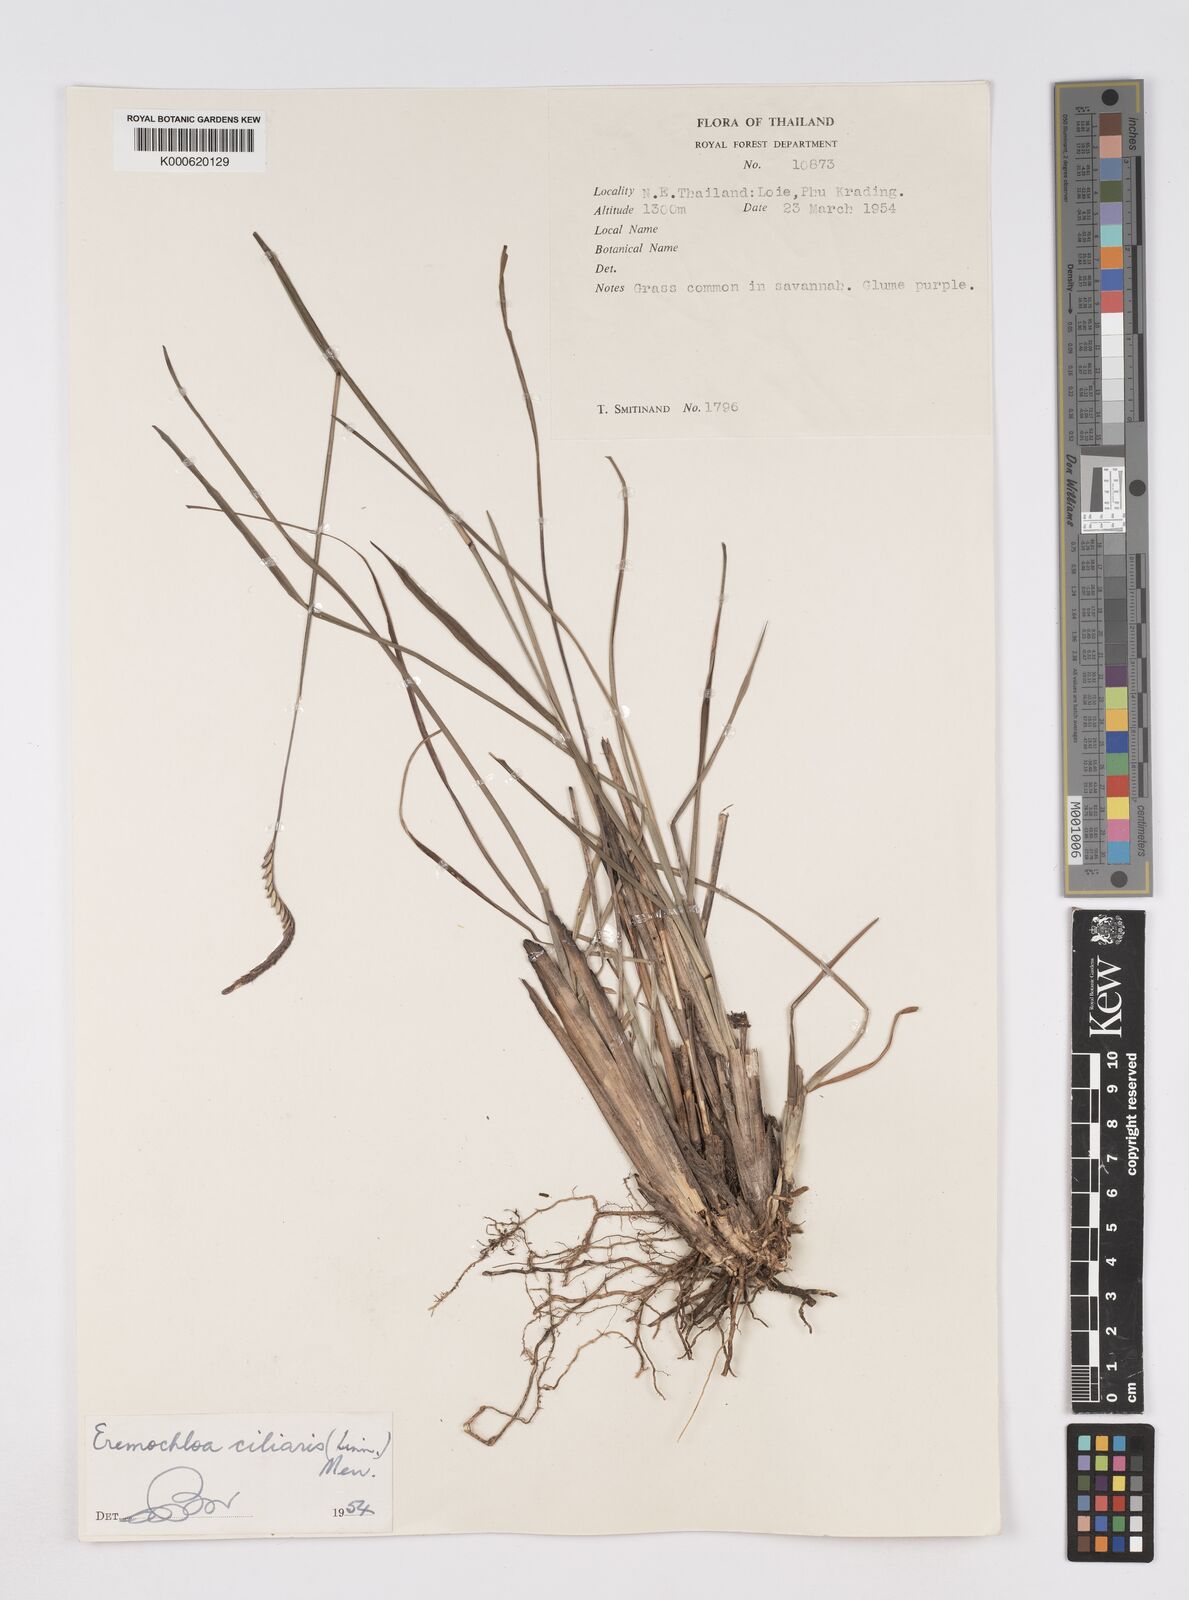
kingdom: Plantae
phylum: Tracheophyta
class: Liliopsida
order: Poales
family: Poaceae
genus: Eremochloa
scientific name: Eremochloa ciliaris
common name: Fringed centipede grass
